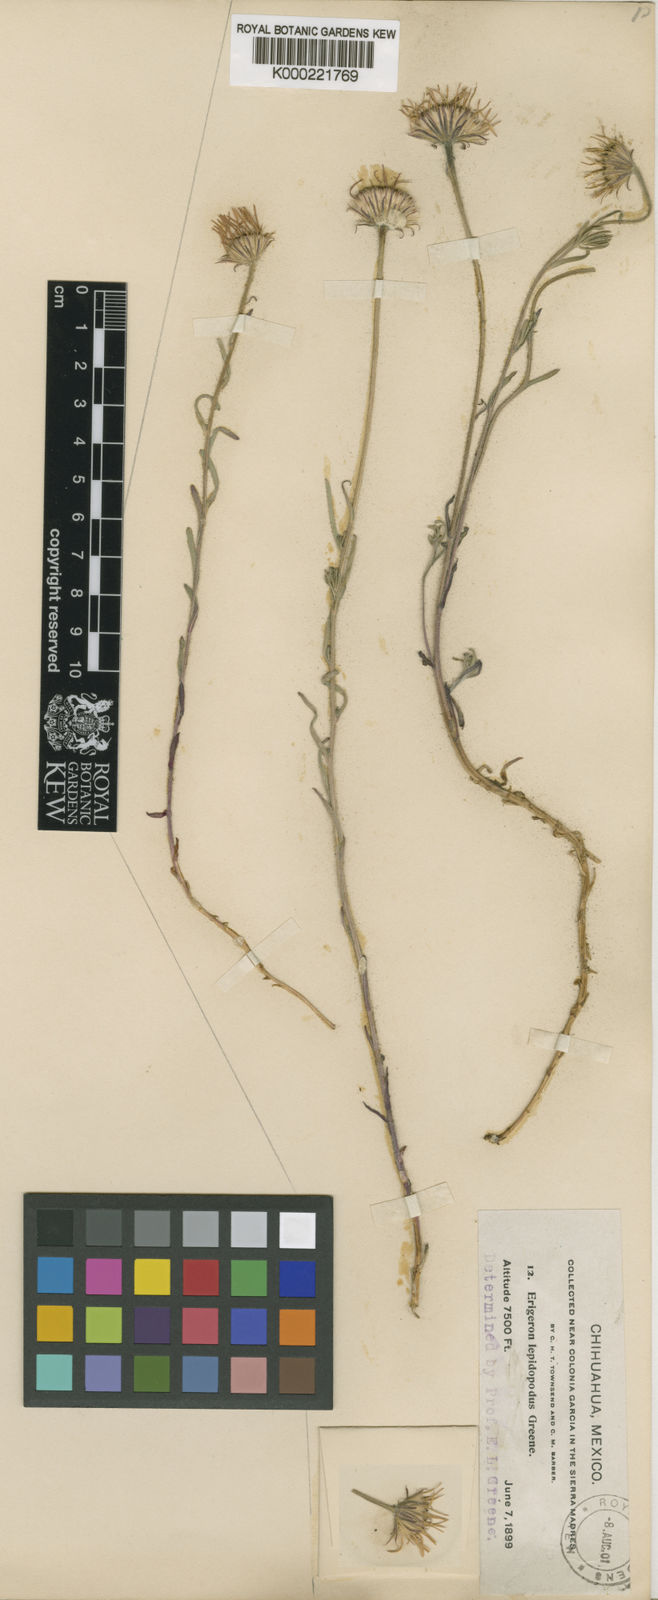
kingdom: Plantae
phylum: Tracheophyta
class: Magnoliopsida
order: Asterales
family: Asteraceae
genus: Erigeron
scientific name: Erigeron
